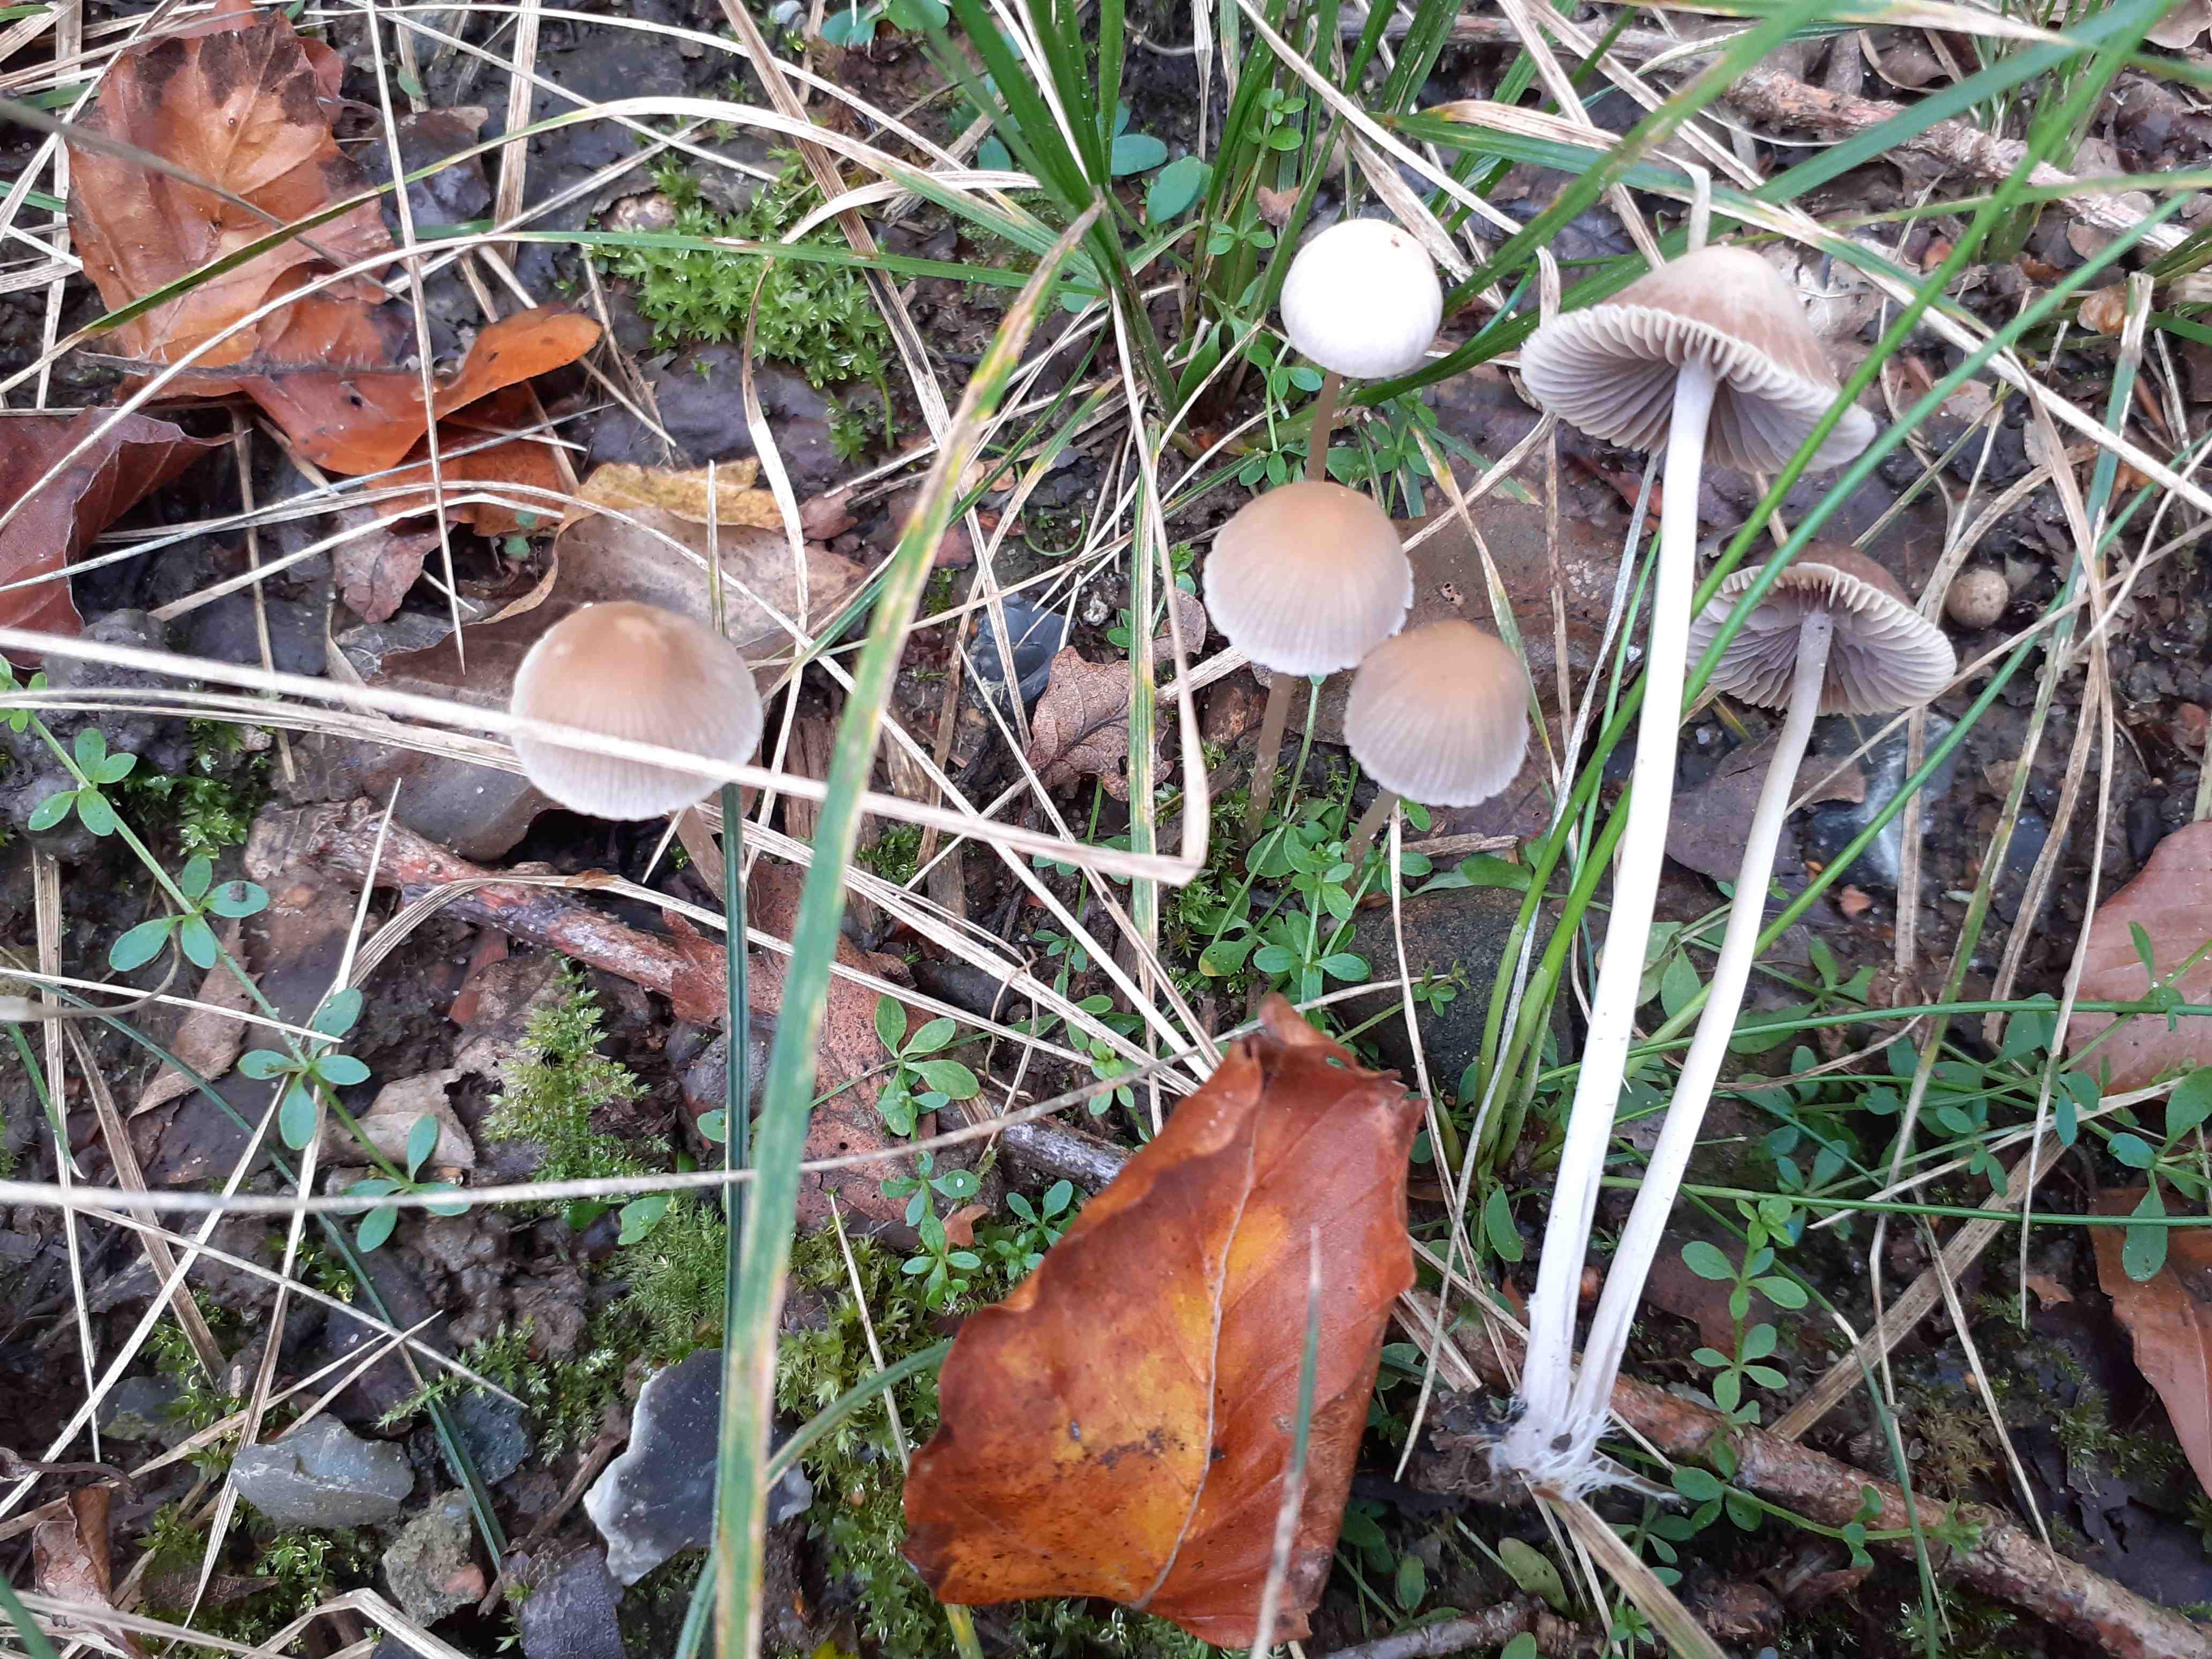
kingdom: Fungi
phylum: Basidiomycota
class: Agaricomycetes
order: Agaricales
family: Psathyrellaceae
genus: Psathyrella
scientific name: Psathyrella corrugis
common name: rødægget mørkhat
